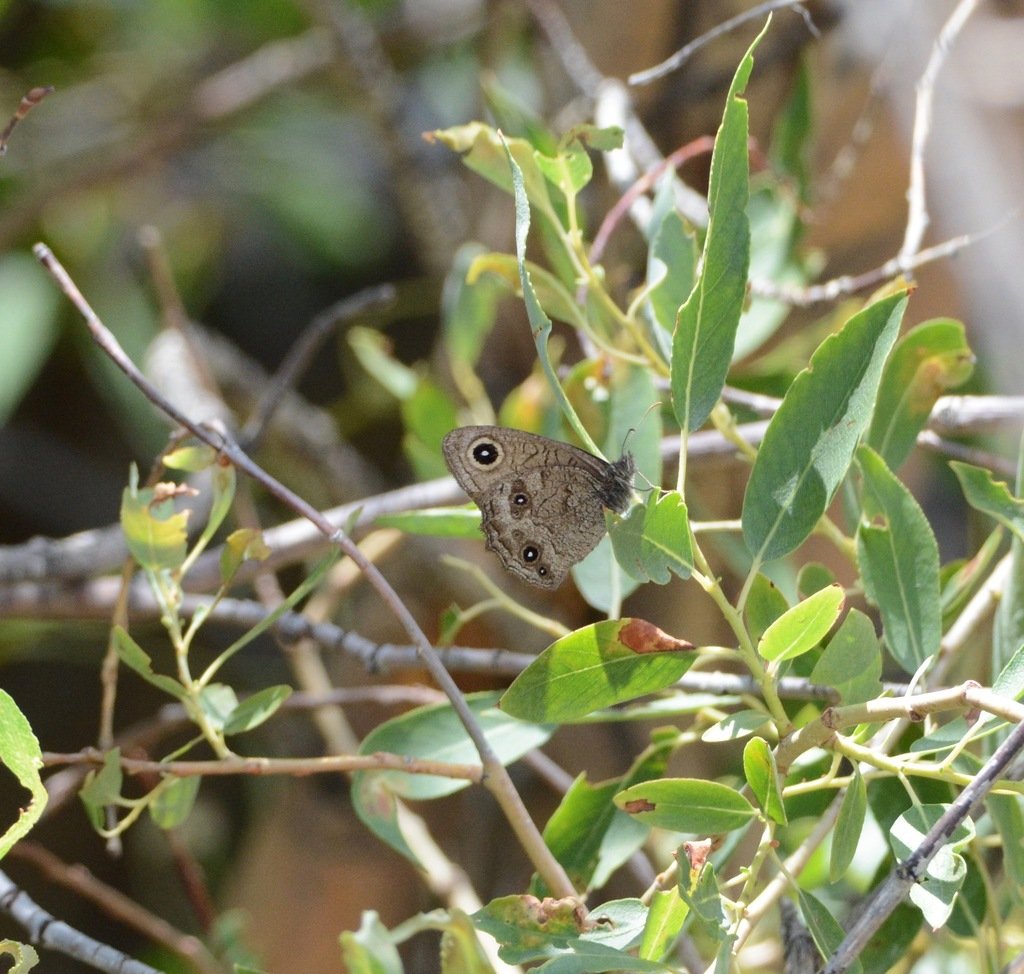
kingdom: Animalia
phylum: Arthropoda
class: Insecta
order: Lepidoptera
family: Nymphalidae
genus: Cercyonis
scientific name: Cercyonis pegala
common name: Common Wood-Nymph
